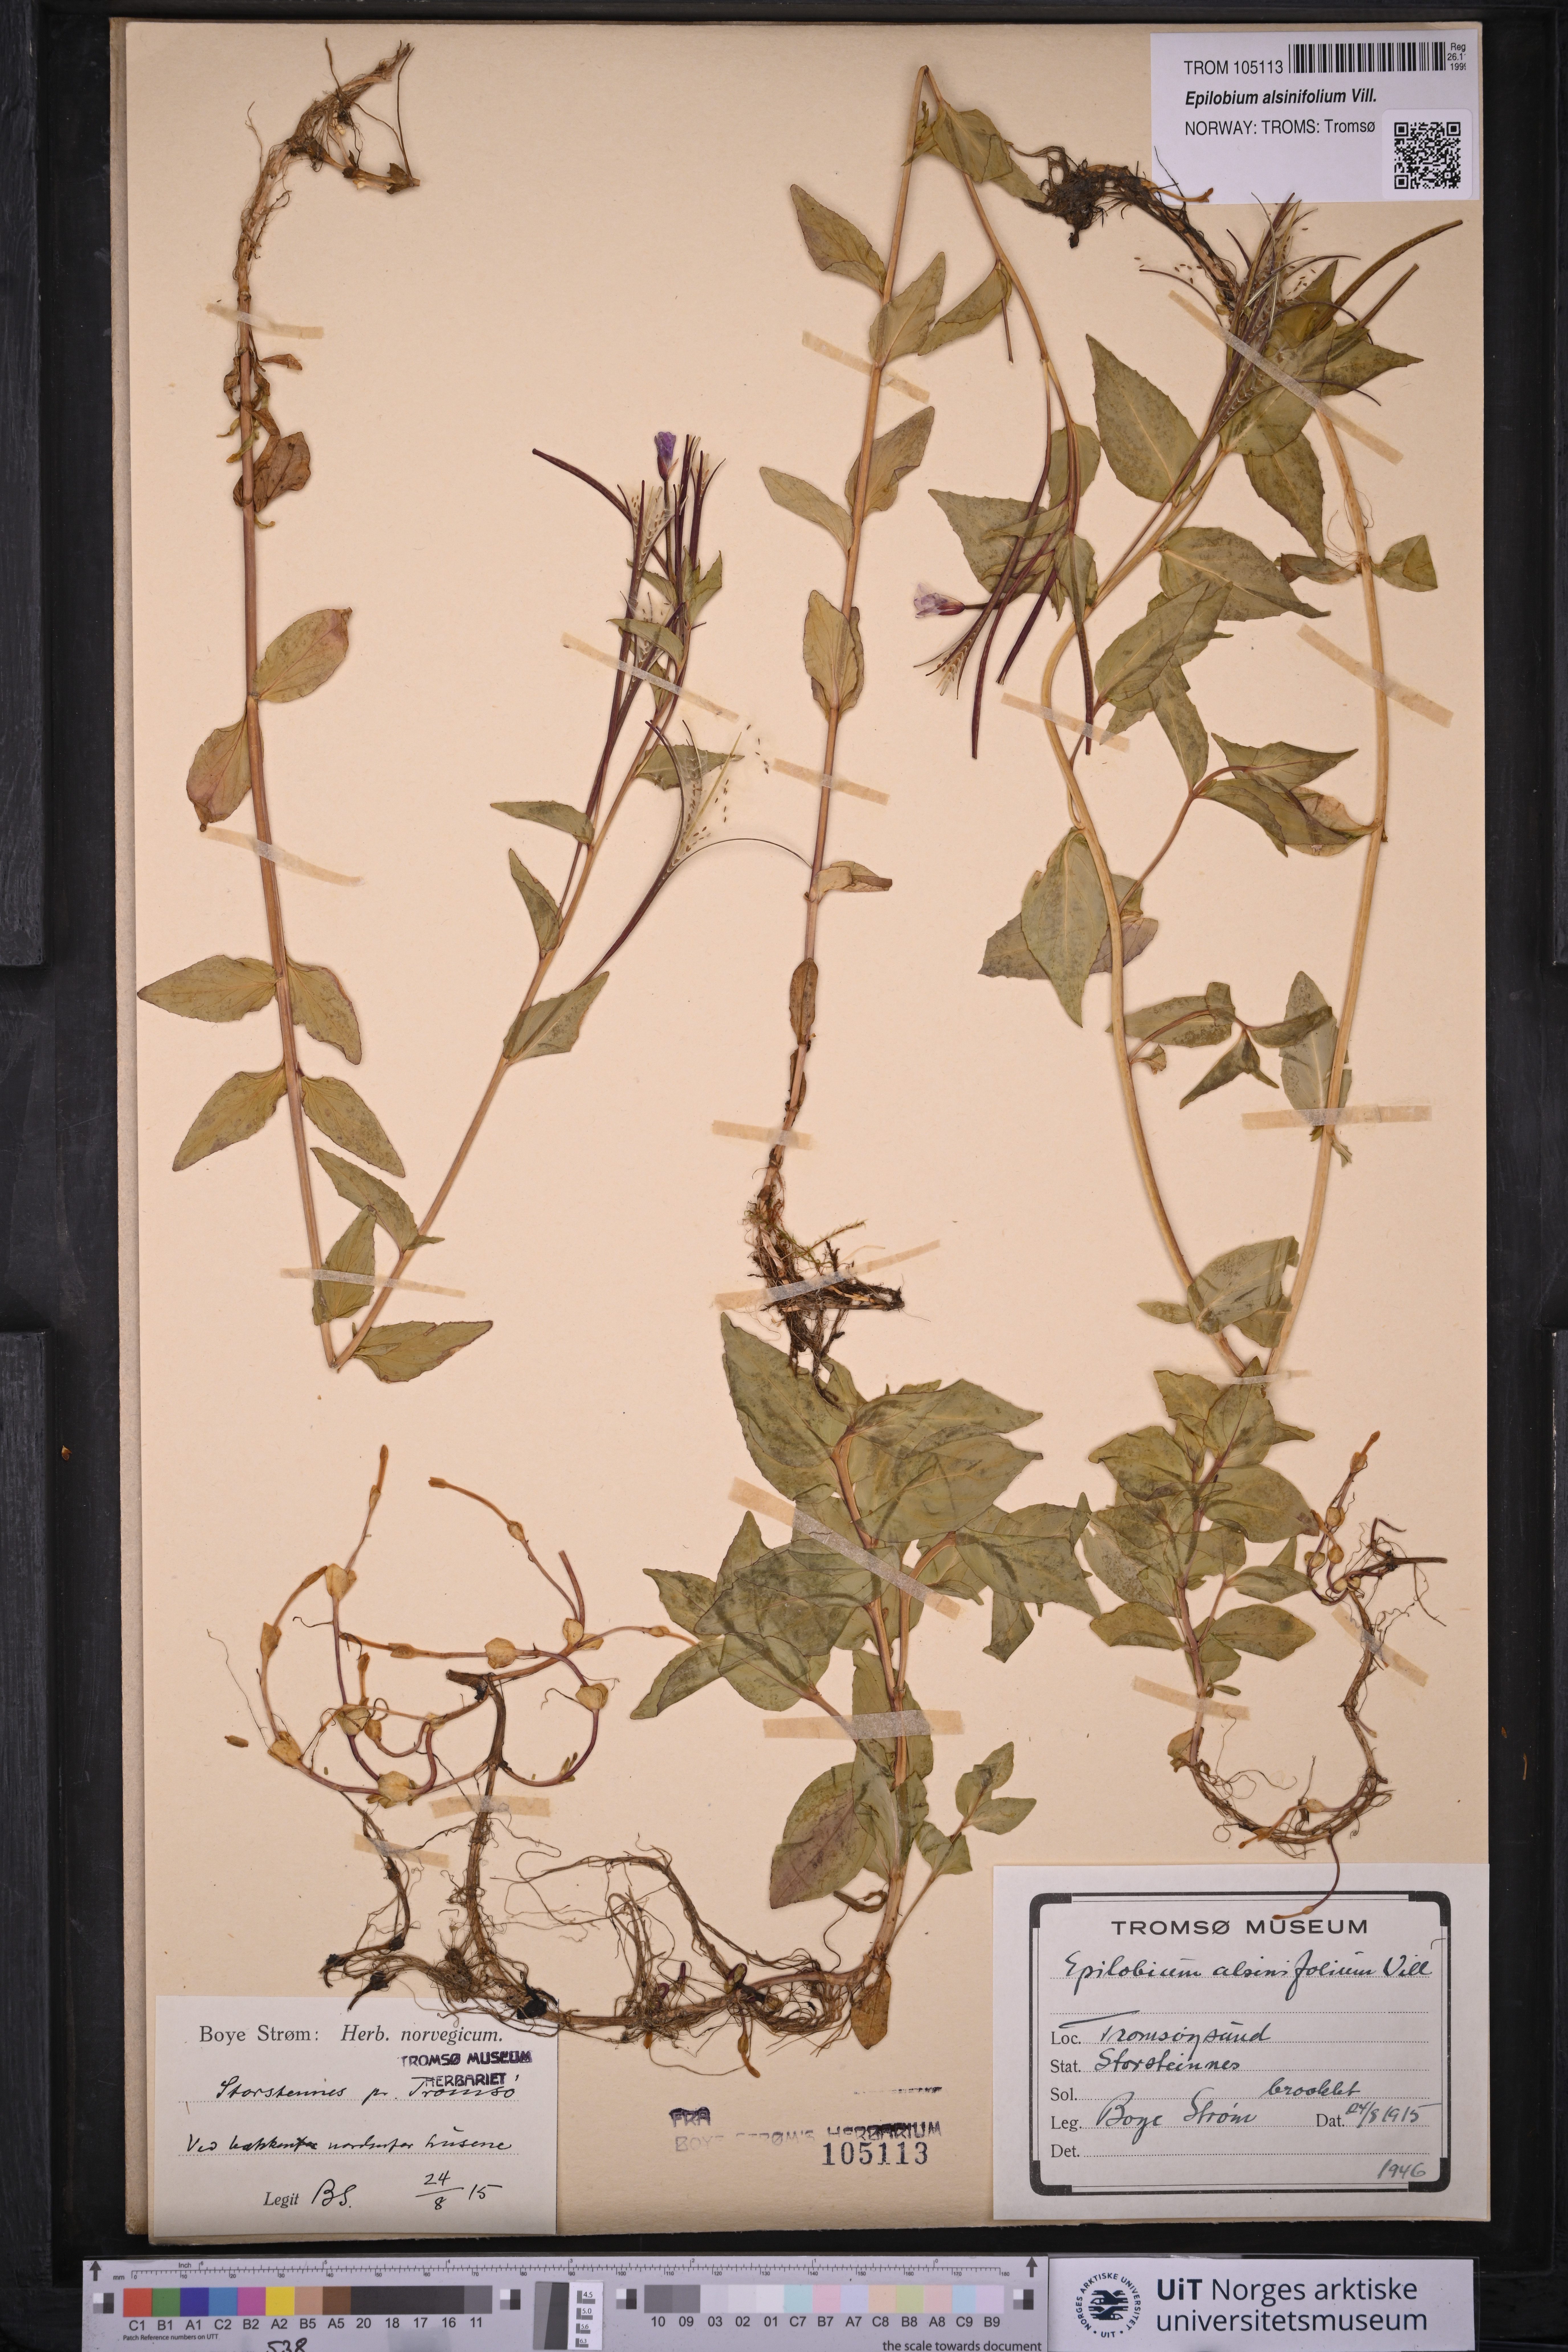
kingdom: Plantae
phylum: Tracheophyta
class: Magnoliopsida
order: Myrtales
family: Onagraceae
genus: Epilobium
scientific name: Epilobium alsinifolium
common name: Chickweed willowherb
